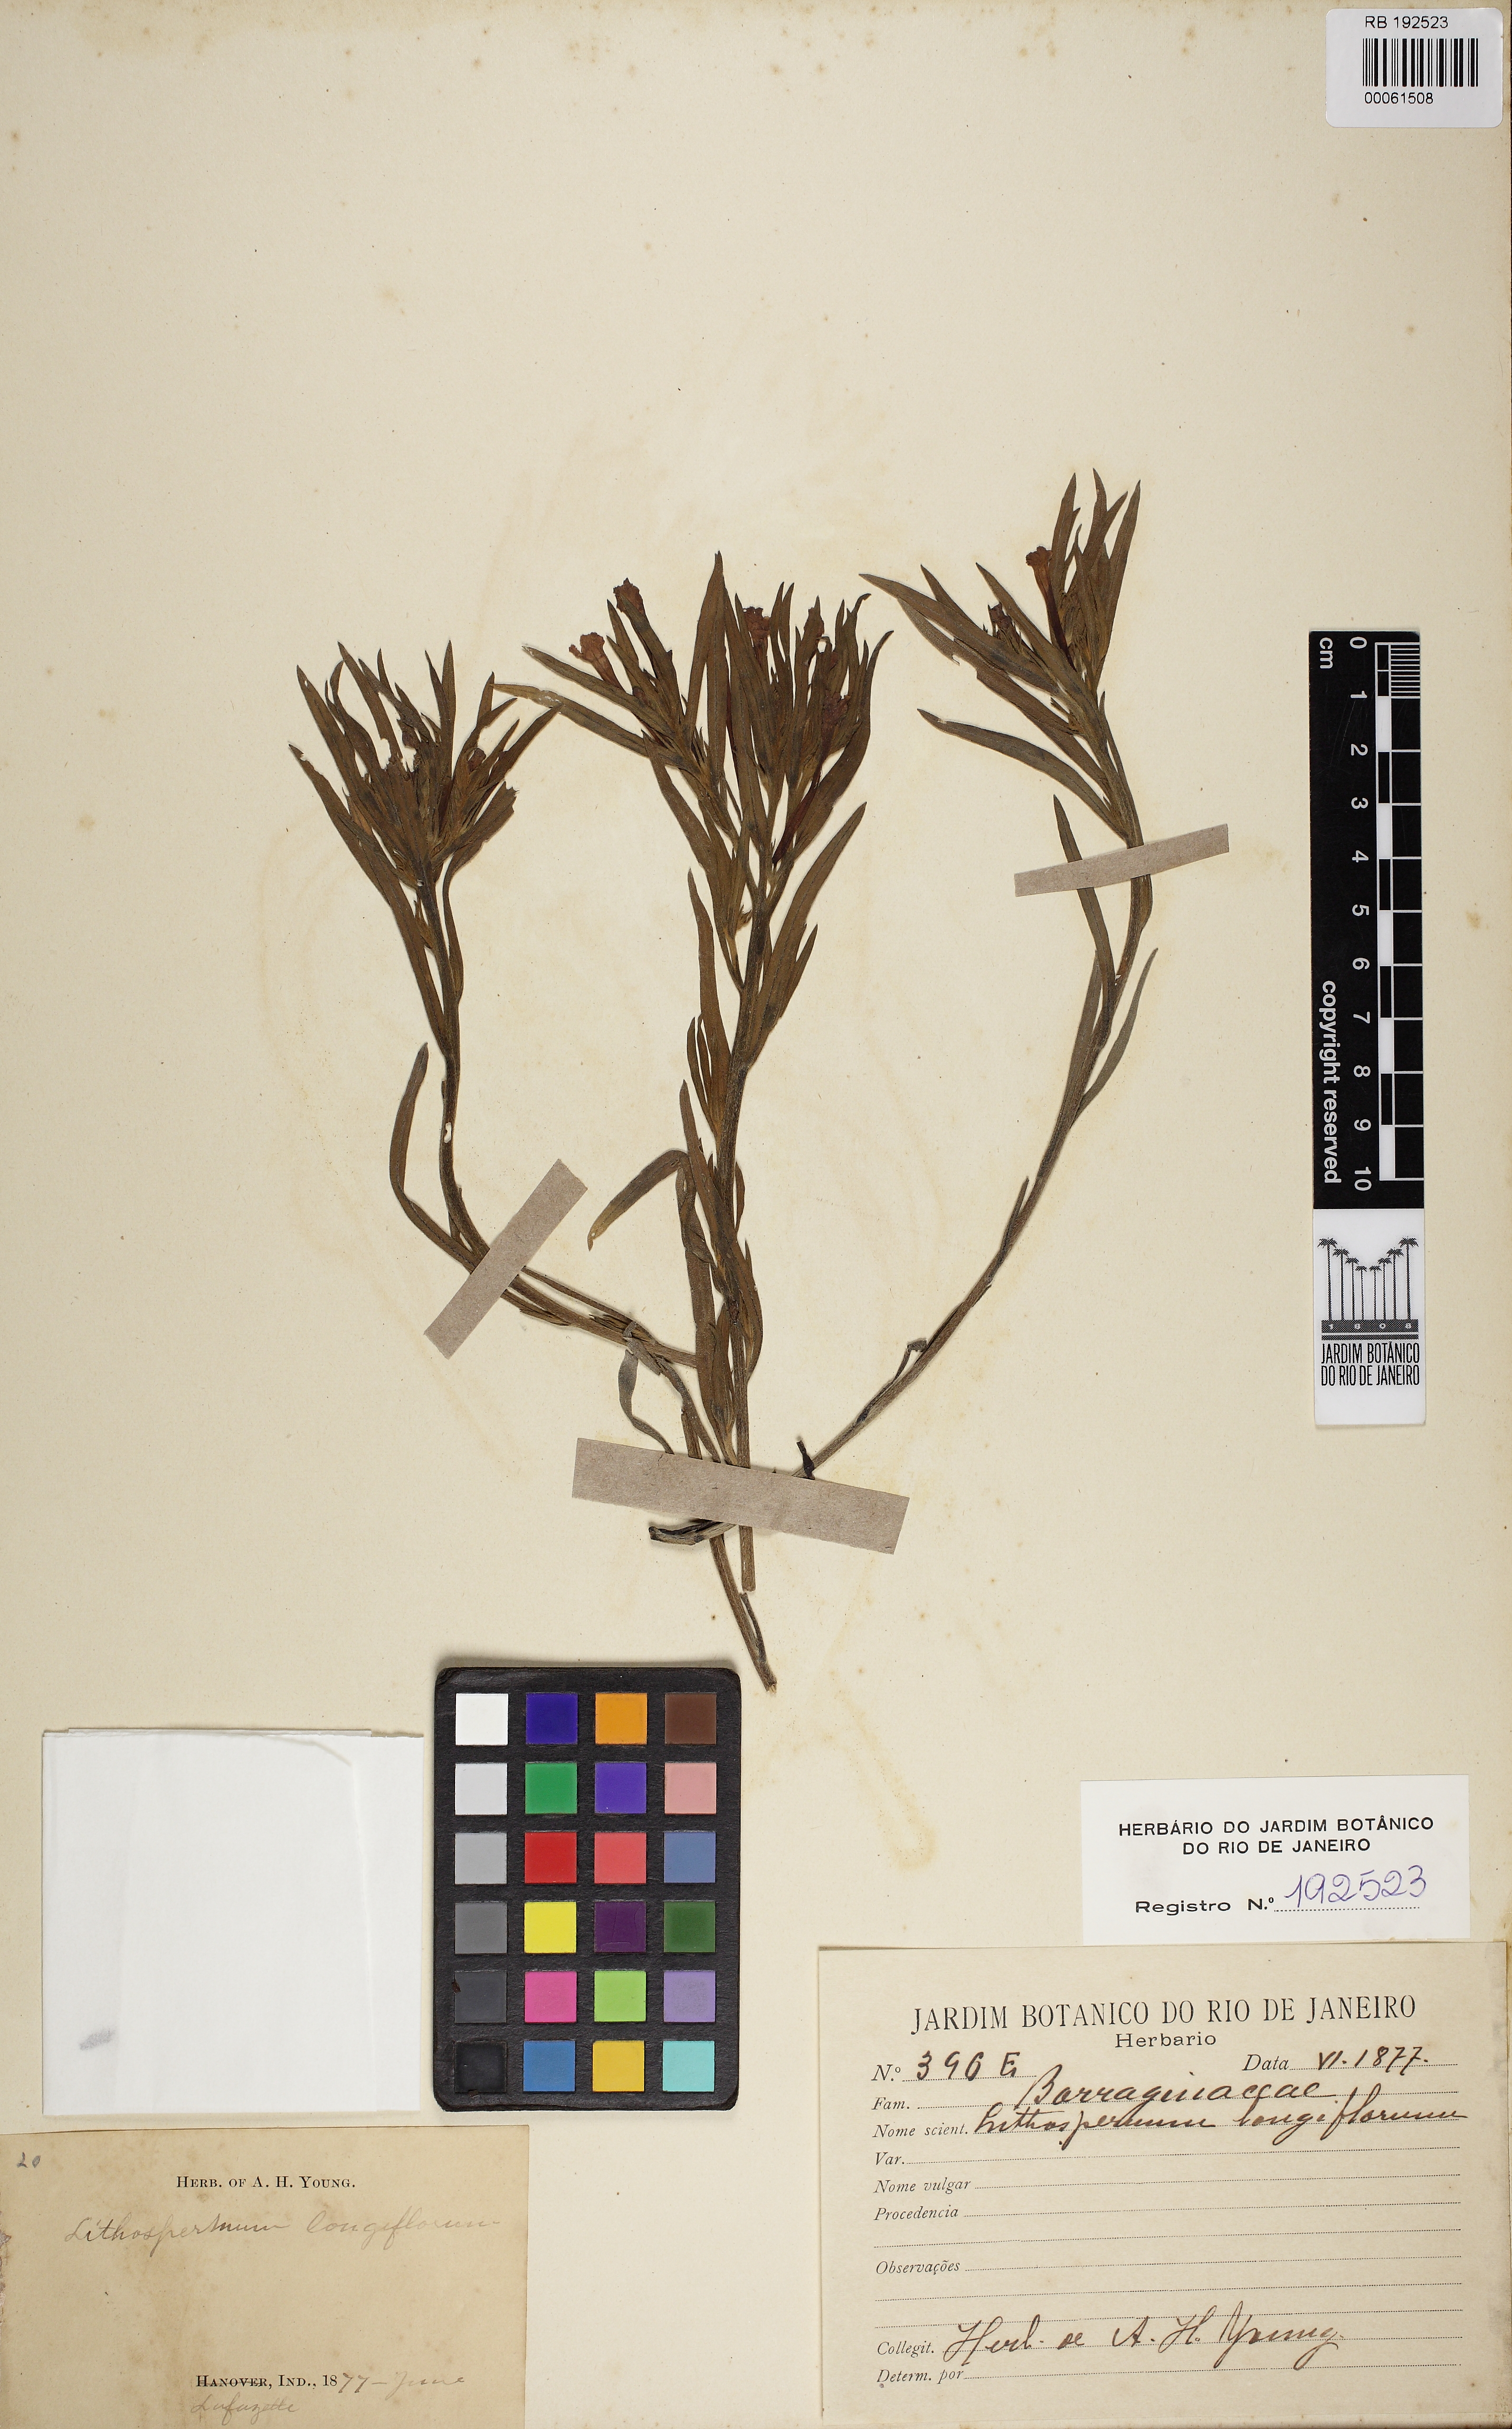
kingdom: Plantae
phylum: Tracheophyta
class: Magnoliopsida
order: Boraginales
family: Boraginaceae
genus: Lithospermum
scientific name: Lithospermum longiflorum
